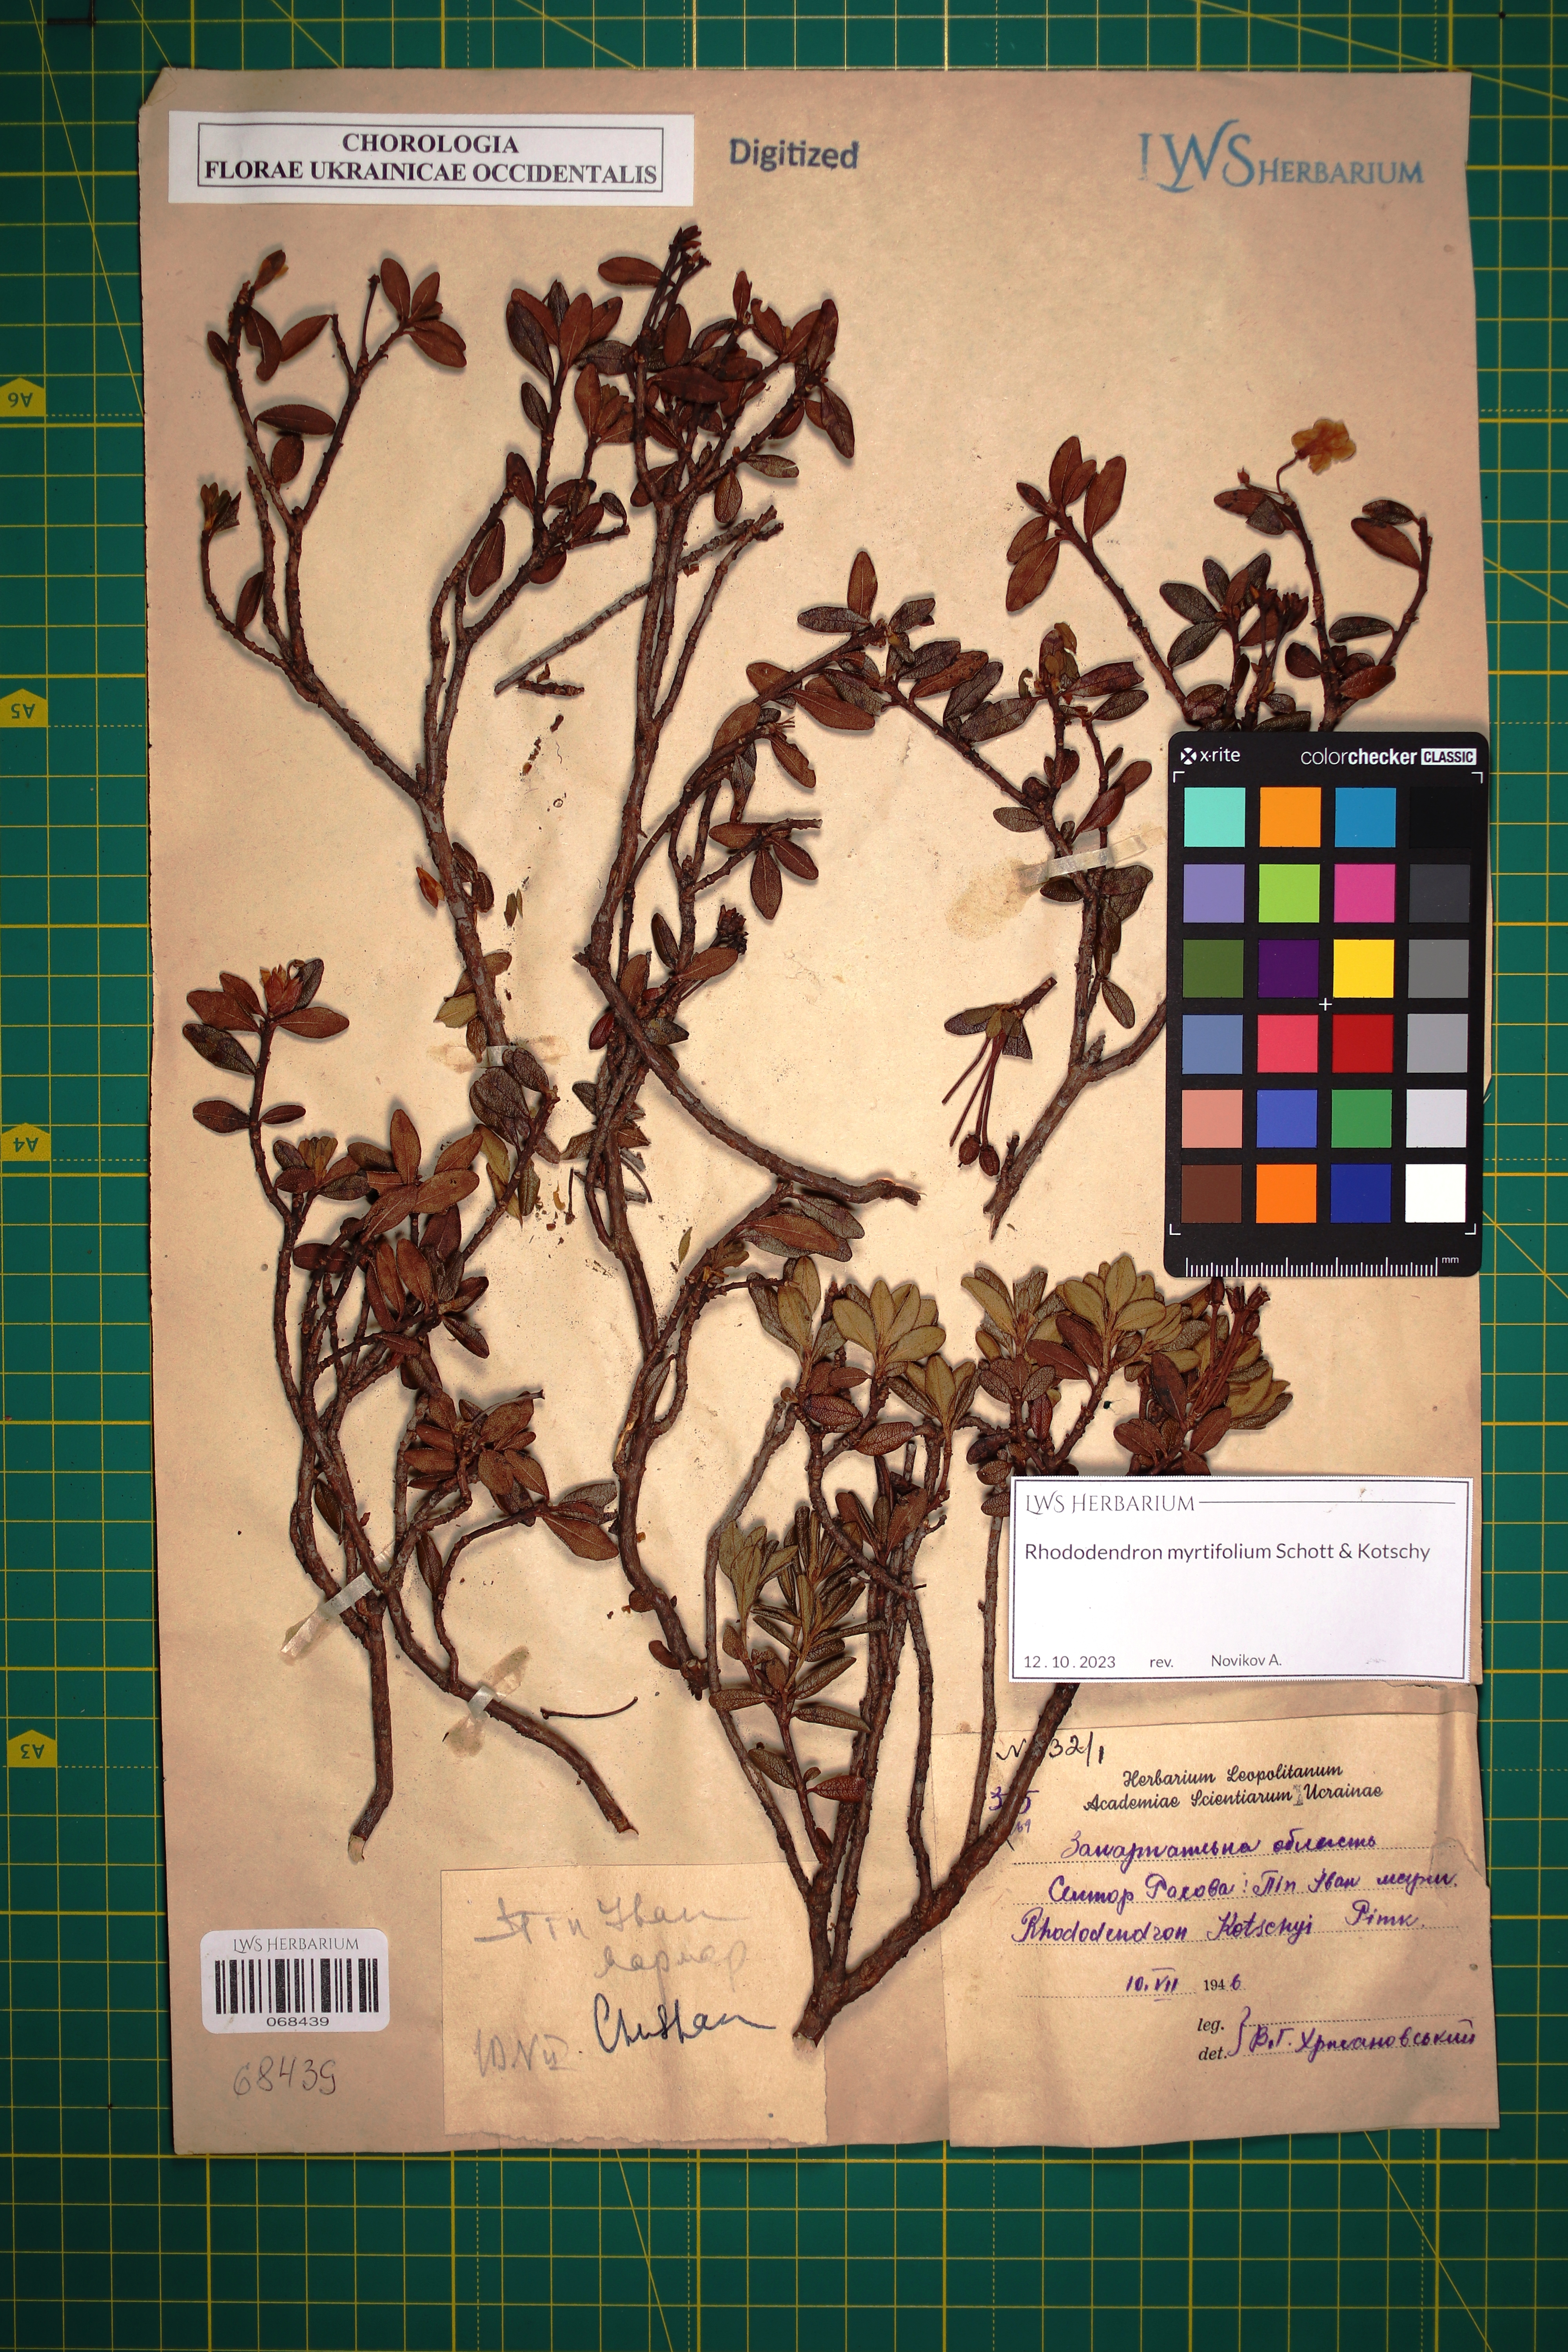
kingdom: Plantae
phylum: Tracheophyta
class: Magnoliopsida
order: Ericales
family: Ericaceae
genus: Rhododendron
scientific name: Rhododendron kotschyi
